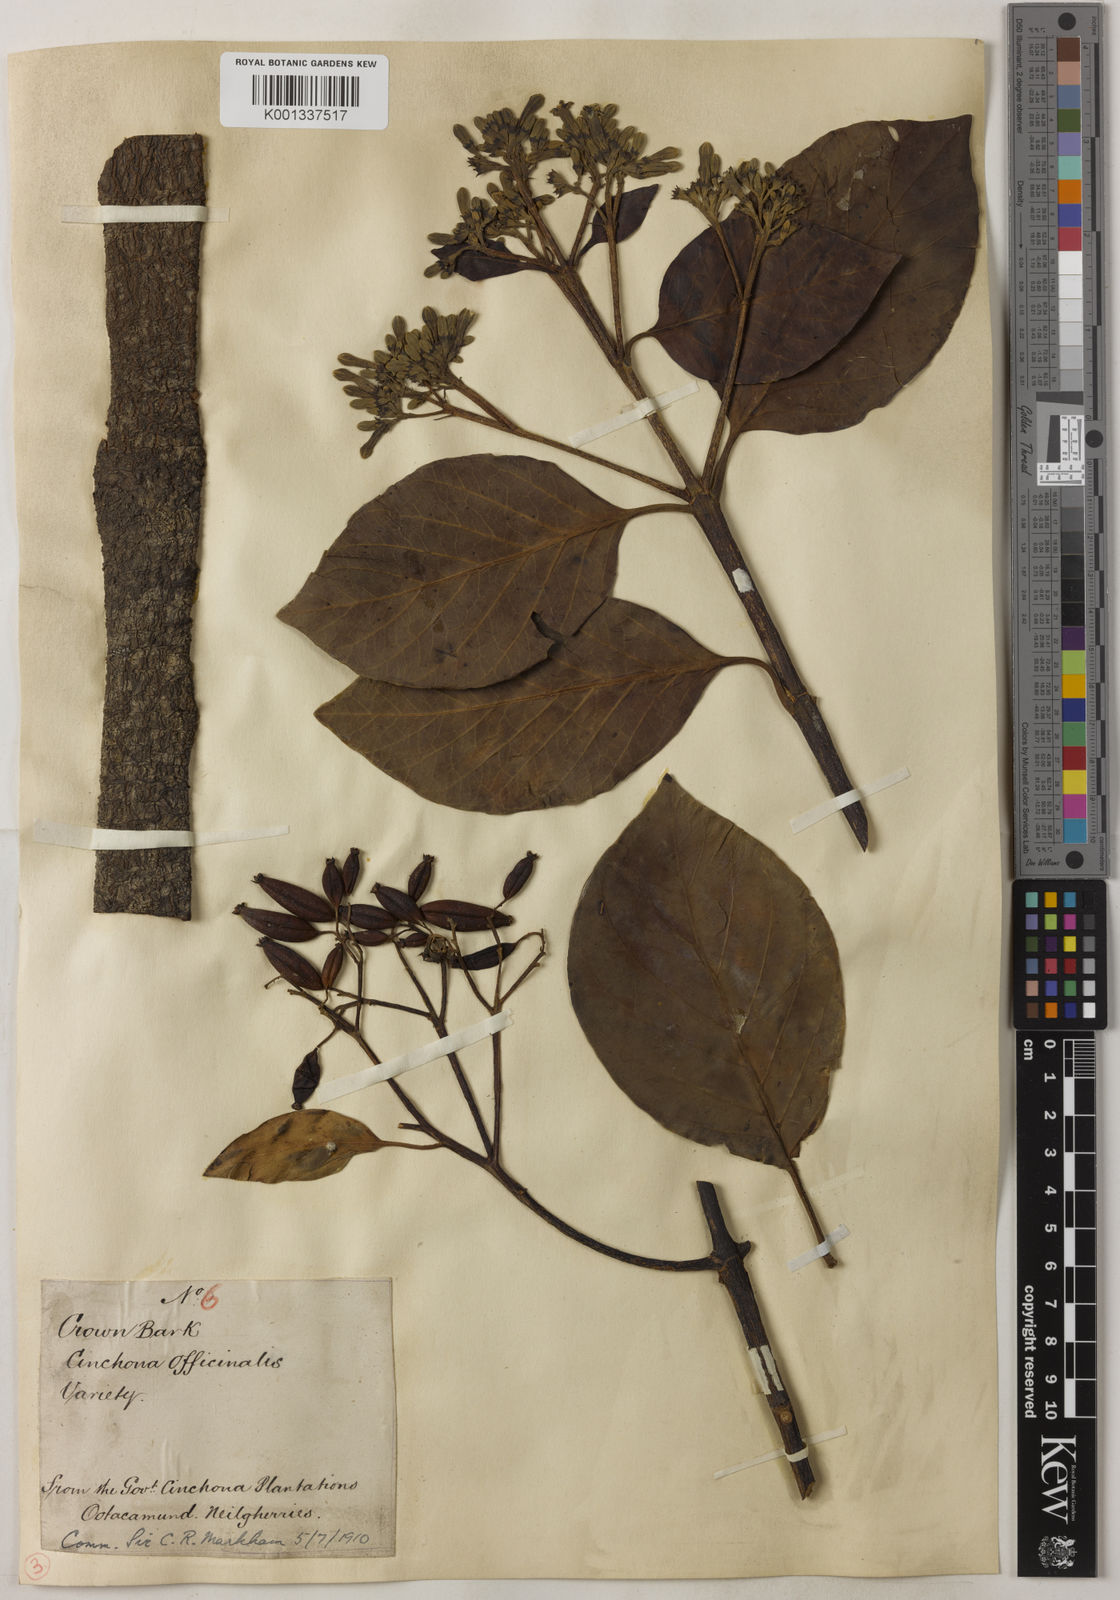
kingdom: Plantae
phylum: Tracheophyta
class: Magnoliopsida
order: Gentianales
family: Rubiaceae
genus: Cinchona
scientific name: Cinchona officinalis
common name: Lojabark
